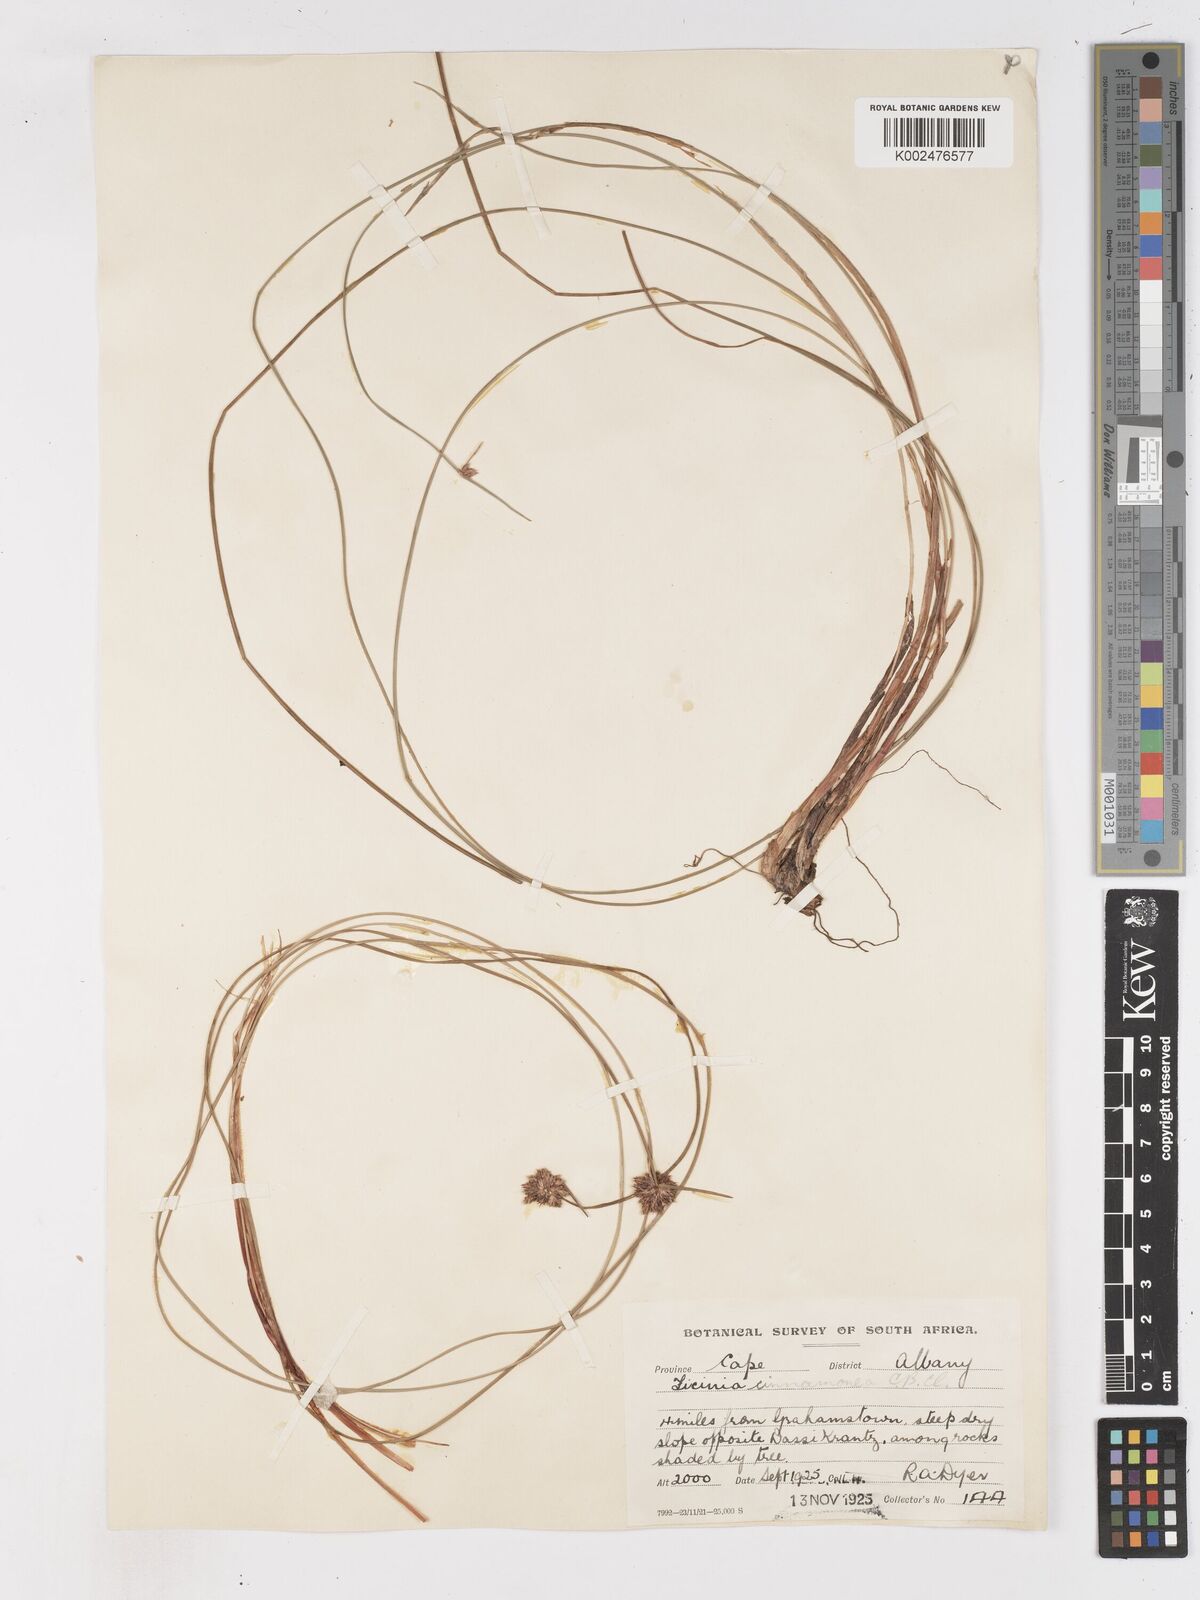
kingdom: Plantae
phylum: Tracheophyta
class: Liliopsida
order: Poales
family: Cyperaceae
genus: Ficinia
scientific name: Ficinia
